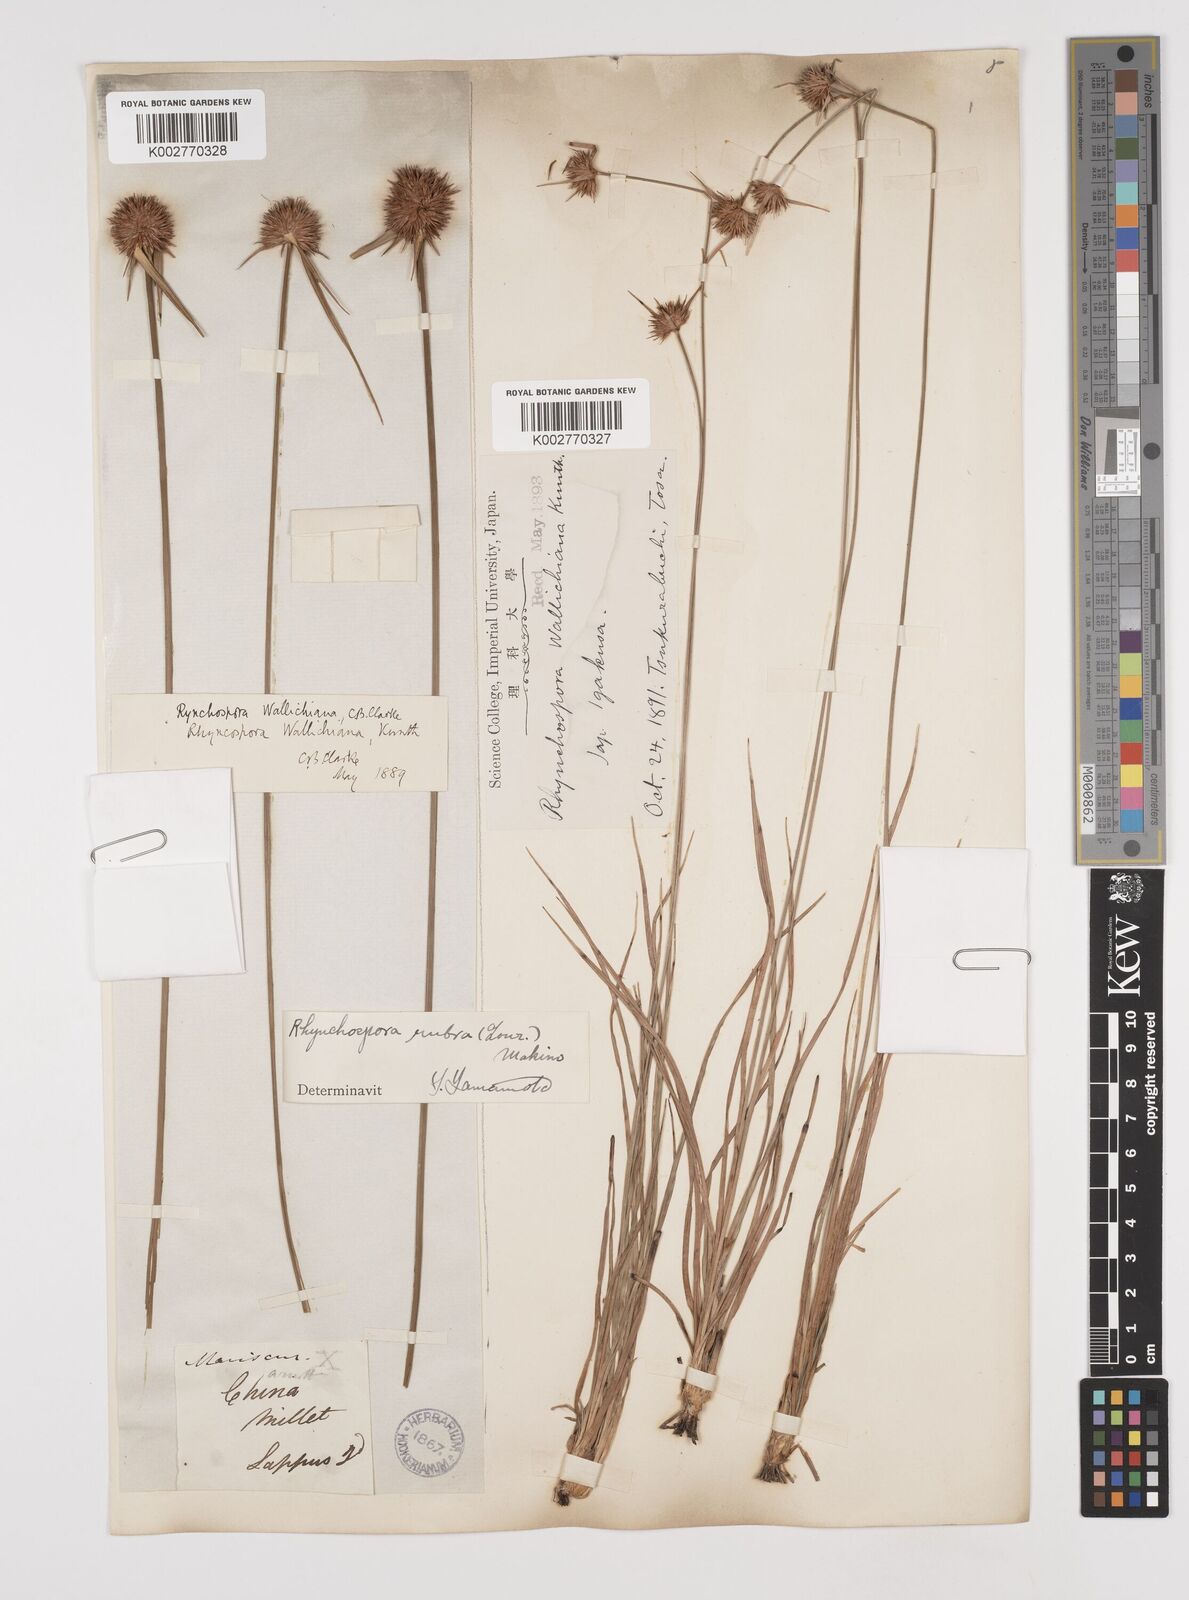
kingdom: Plantae
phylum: Tracheophyta
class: Liliopsida
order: Poales
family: Cyperaceae
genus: Rhynchospora
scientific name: Rhynchospora rubra
